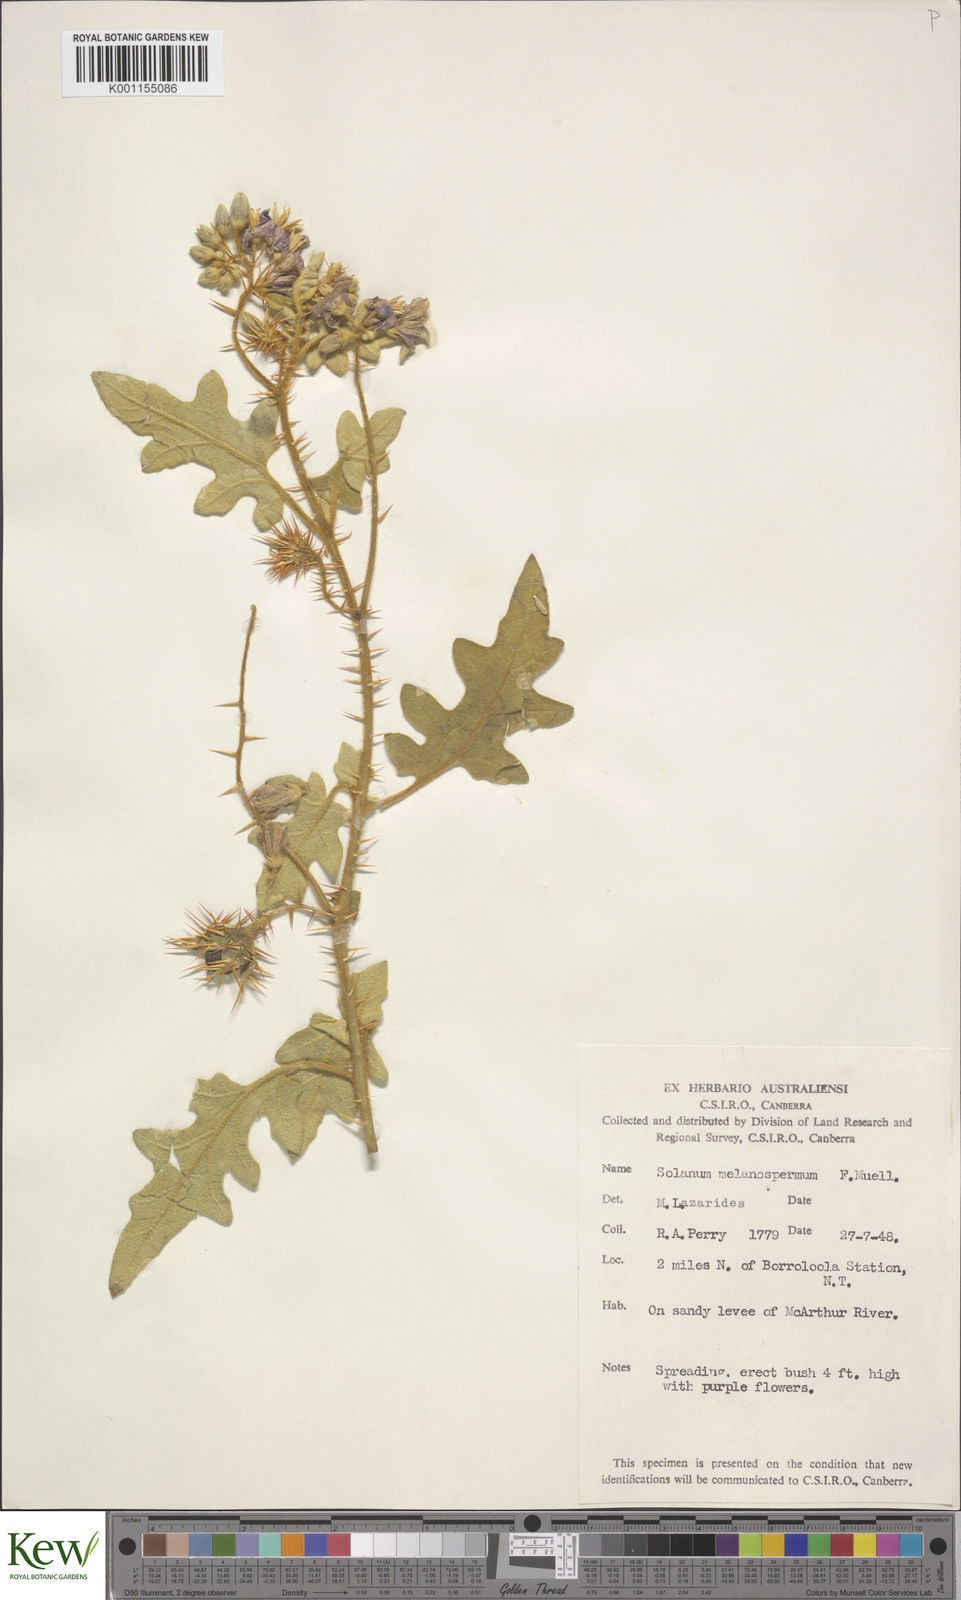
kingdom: Plantae
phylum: Tracheophyta
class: Magnoliopsida
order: Solanales
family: Solanaceae
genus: Solanum
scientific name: Solanum melanospermum
